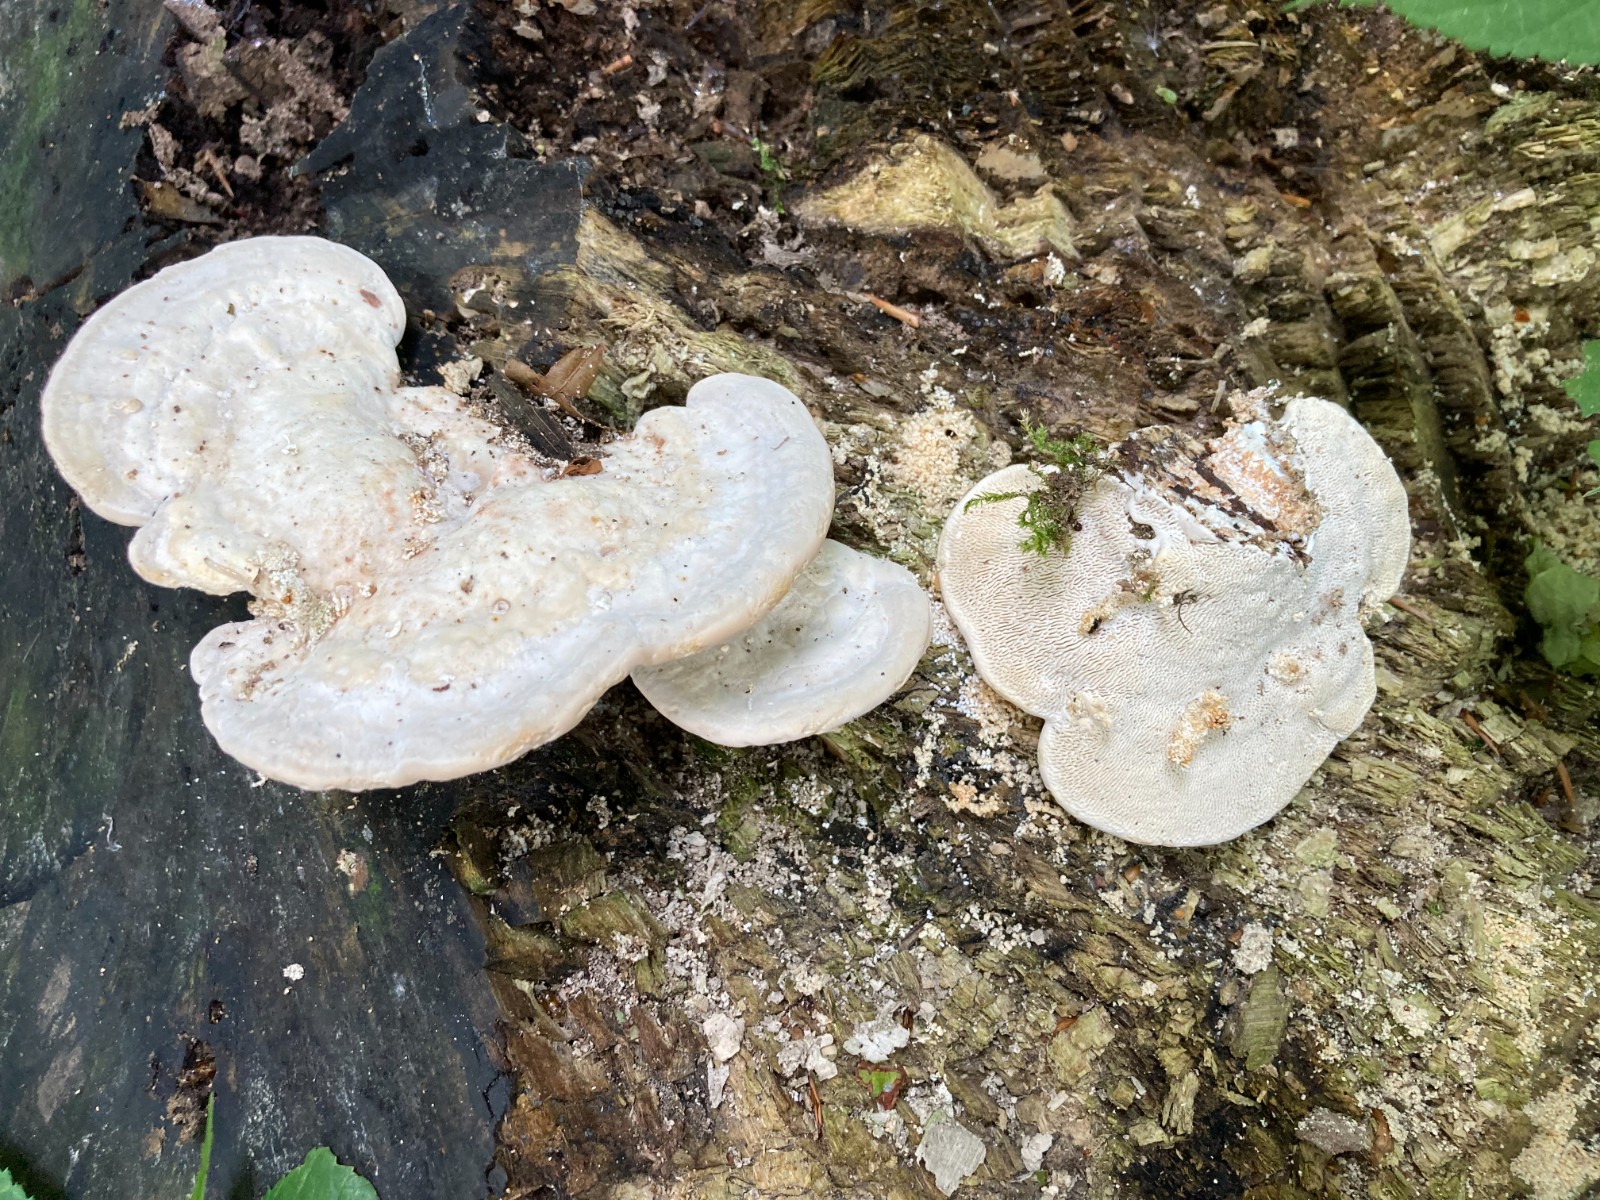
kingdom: Fungi
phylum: Basidiomycota
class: Agaricomycetes
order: Polyporales
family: Polyporaceae
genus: Trametes
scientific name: Trametes gibbosa
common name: puklet læderporesvamp
